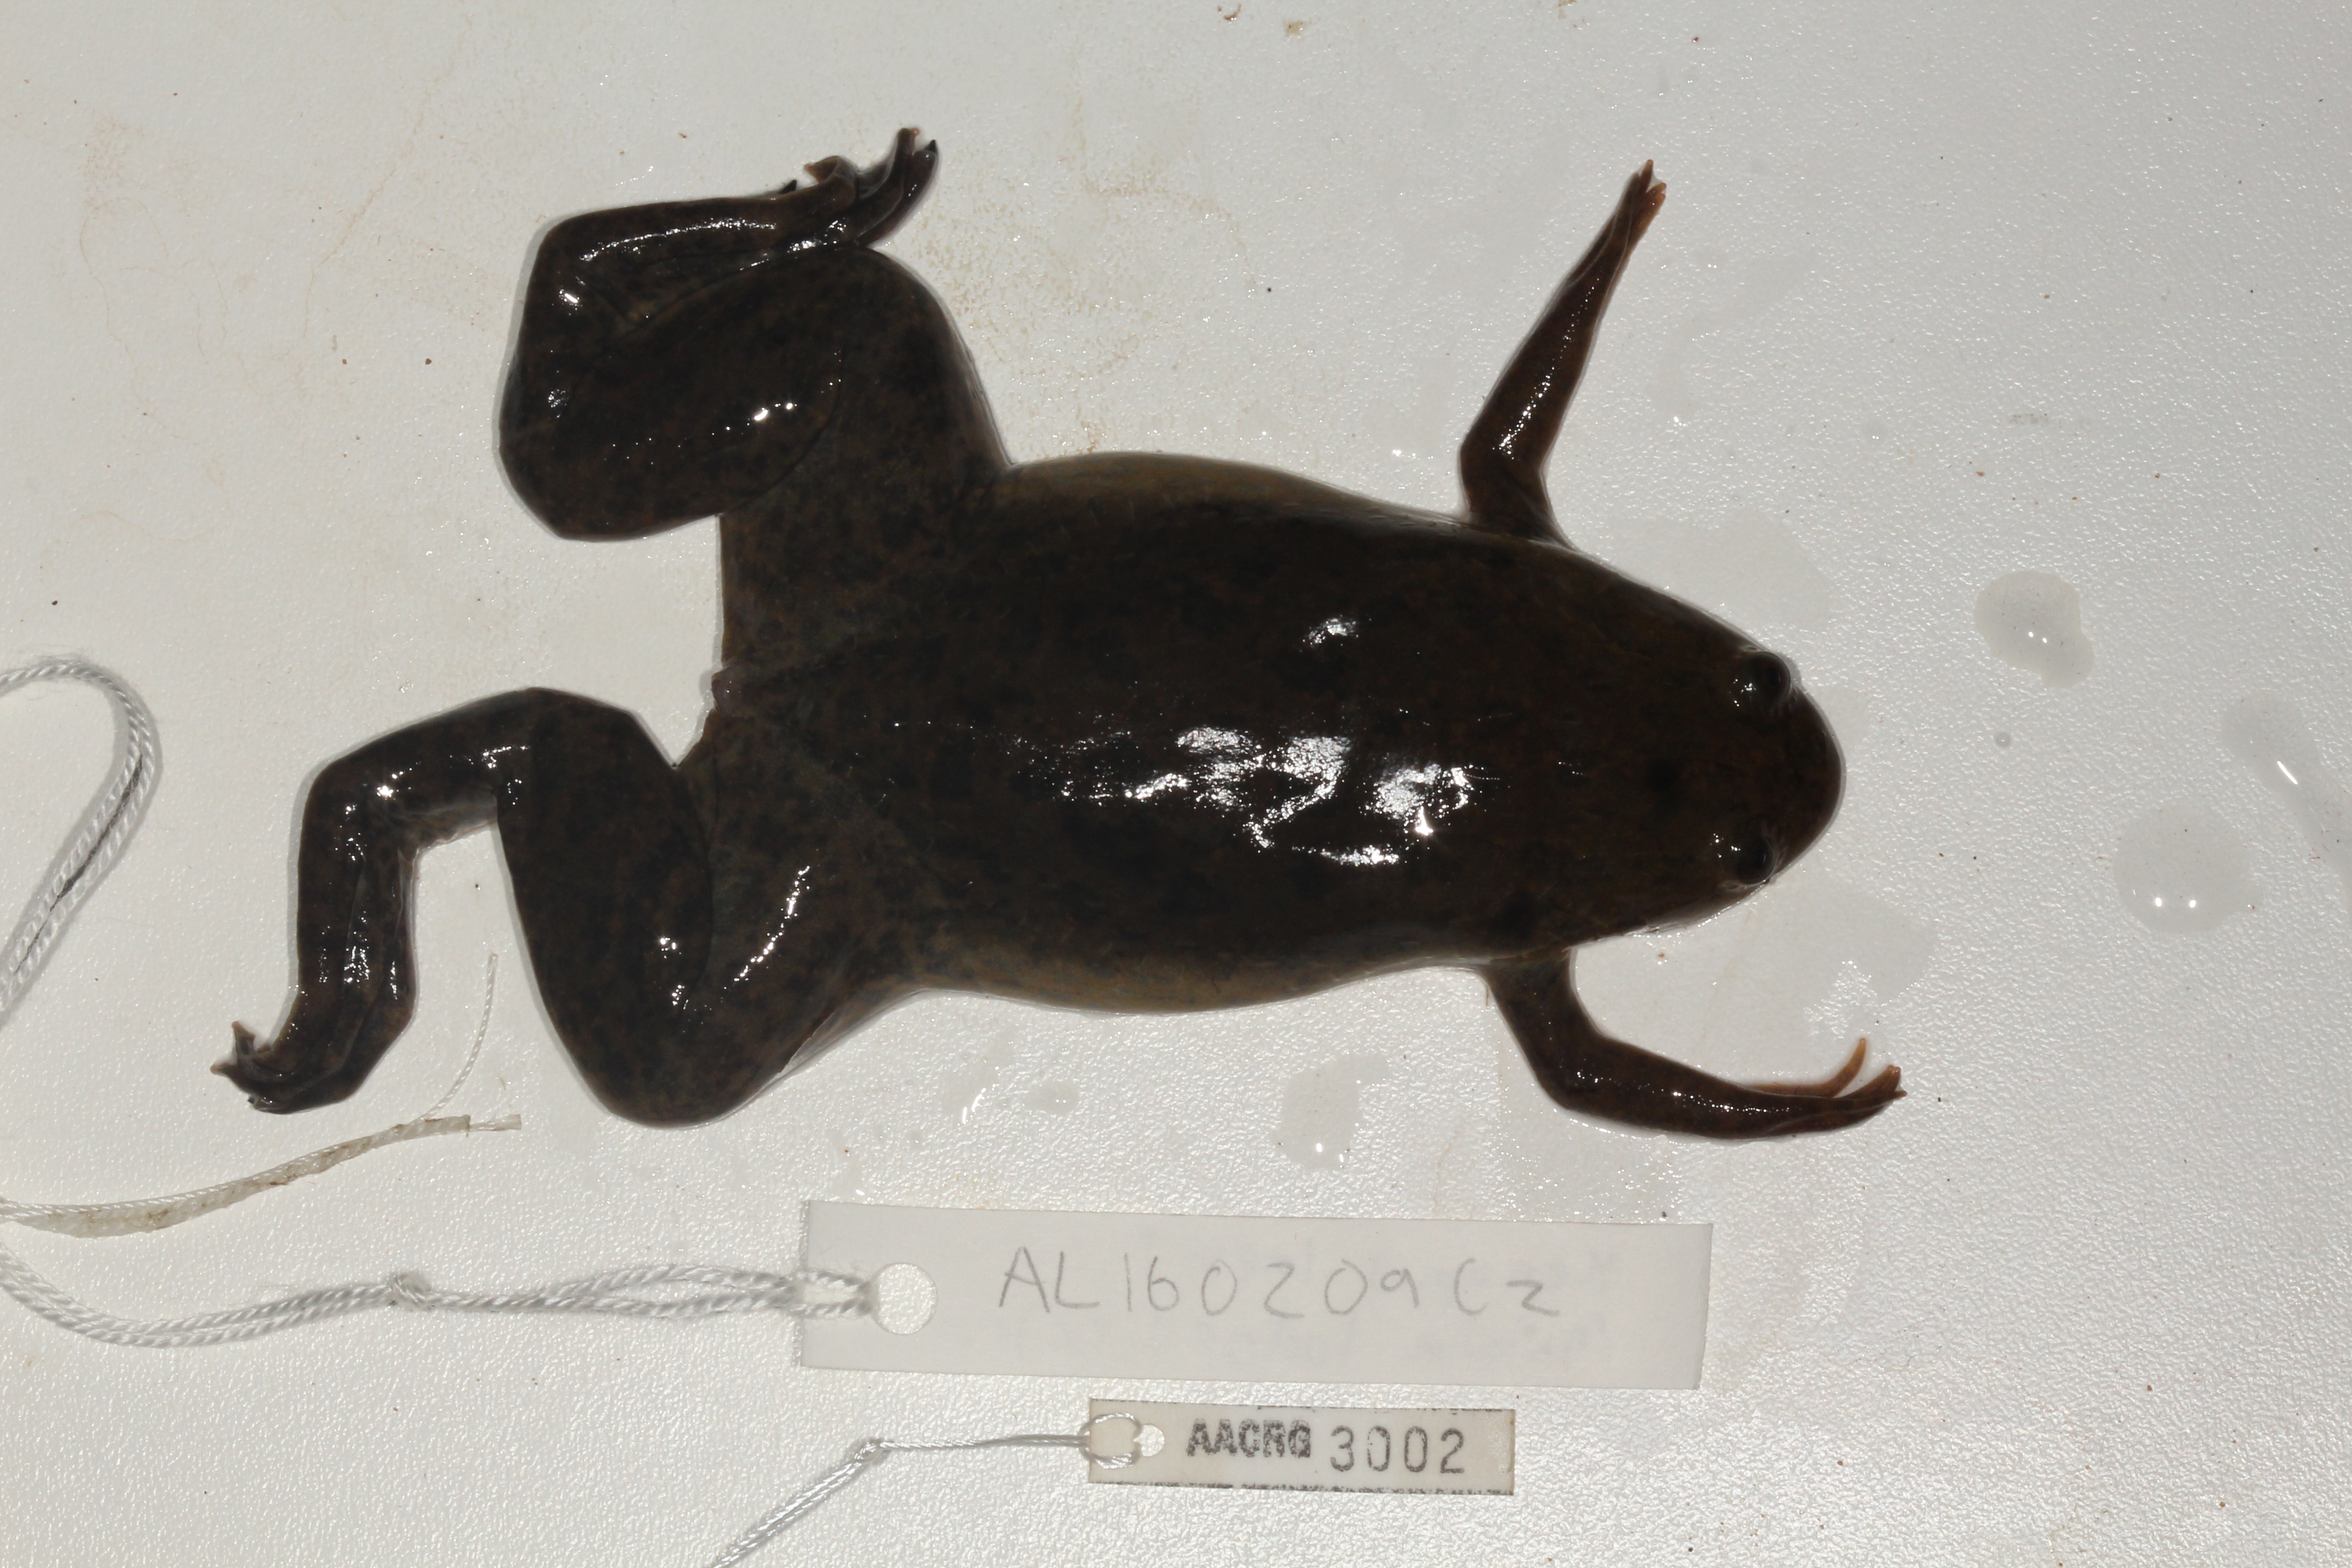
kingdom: Animalia
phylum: Chordata
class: Amphibia
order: Anura
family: Pipidae
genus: Xenopus
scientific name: Xenopus laevis
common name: African clawed frog
